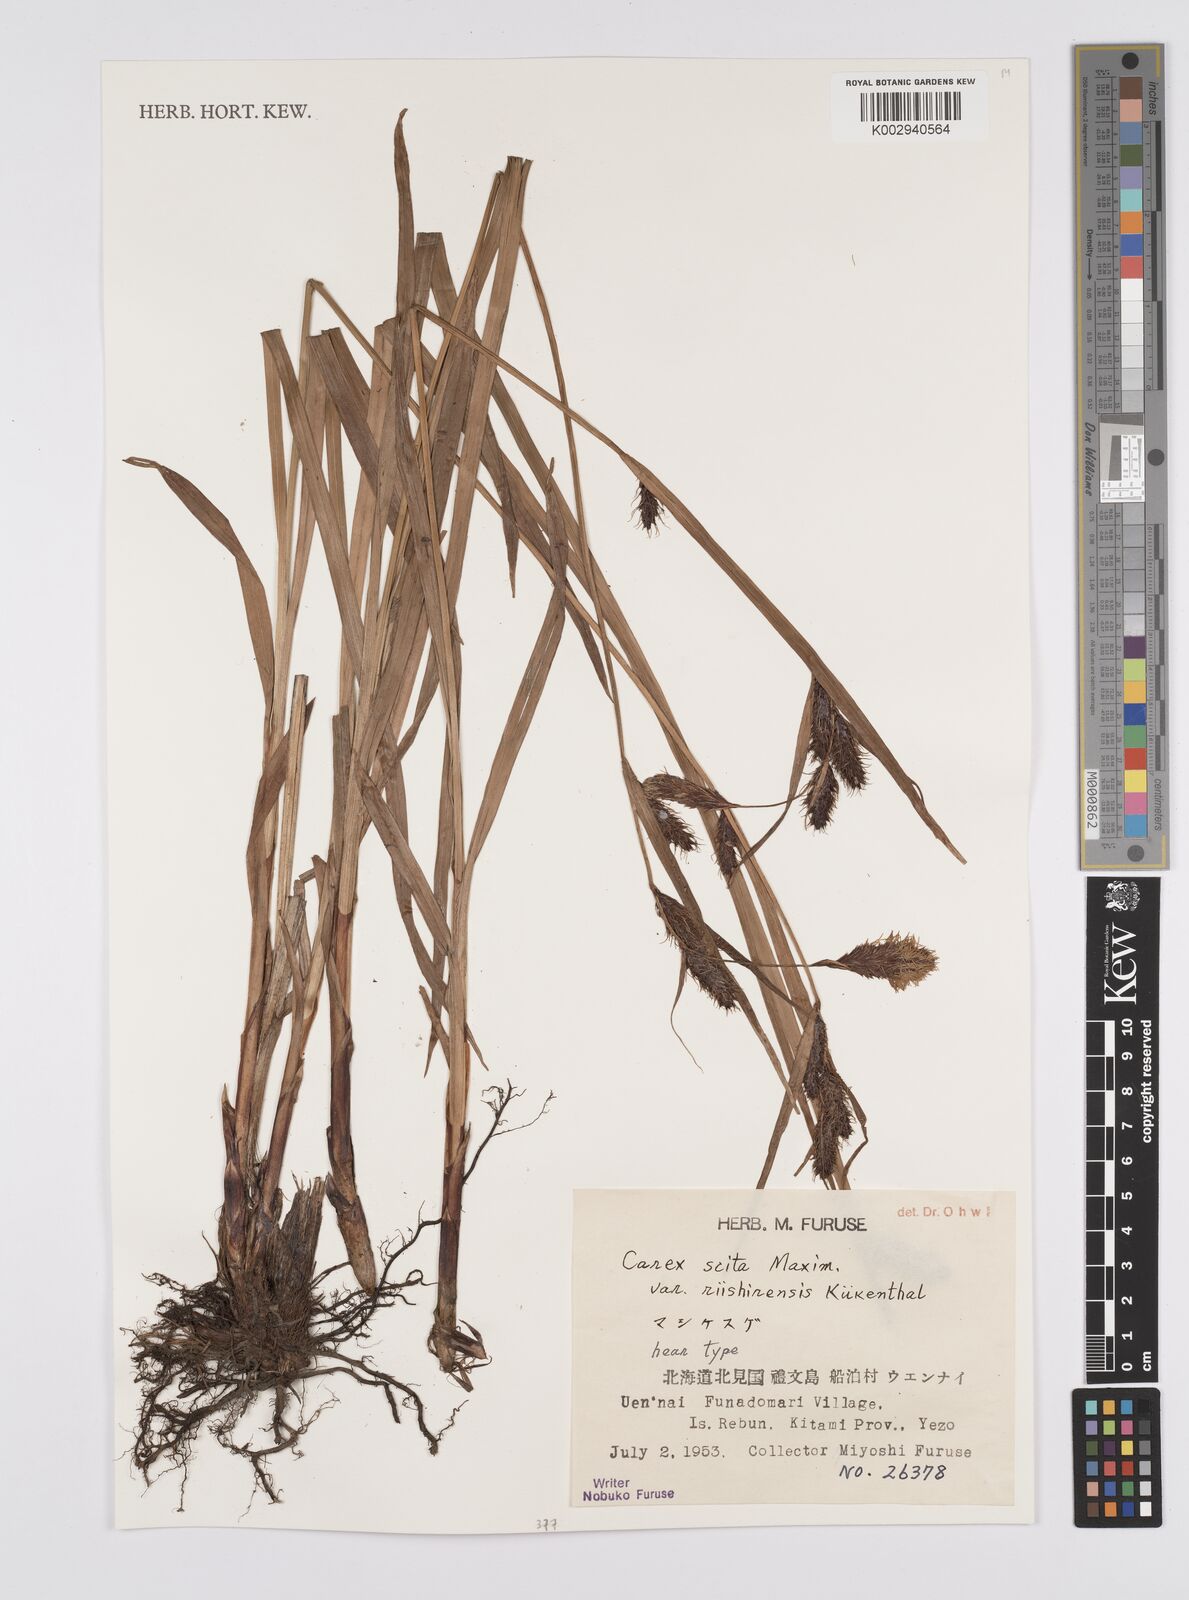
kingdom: Plantae
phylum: Tracheophyta
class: Liliopsida
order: Poales
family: Cyperaceae
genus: Carex
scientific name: Carex scita
